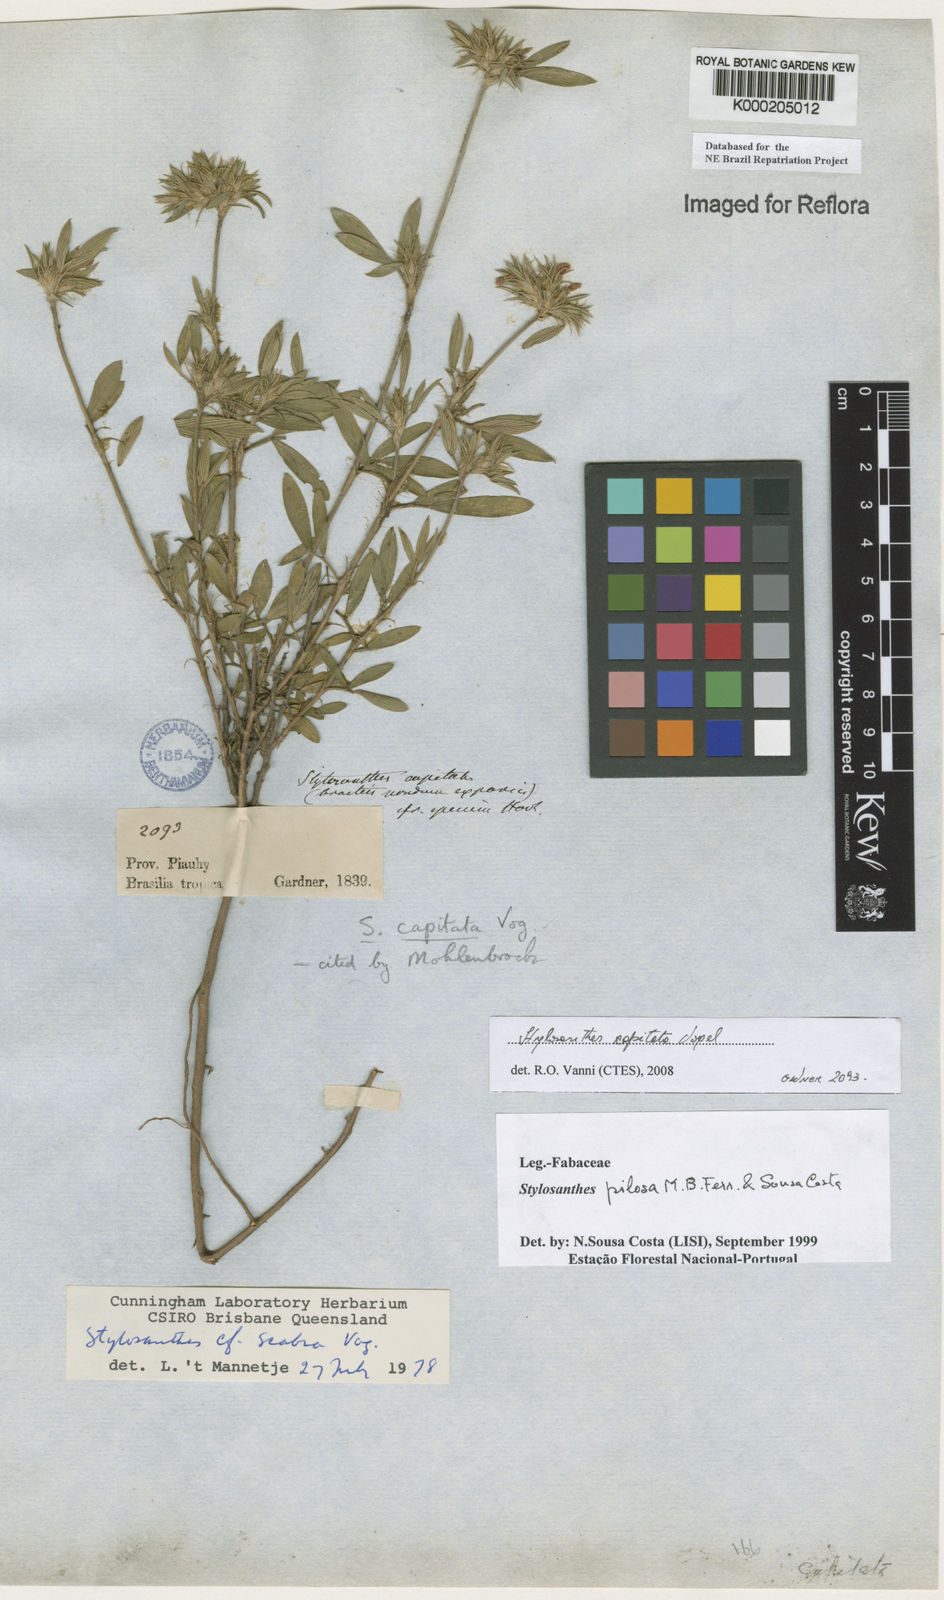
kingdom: Plantae
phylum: Tracheophyta
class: Magnoliopsida
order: Fabales
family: Fabaceae
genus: Stylosanthes
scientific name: Stylosanthes viscosa
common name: Viscid pencil-flower
